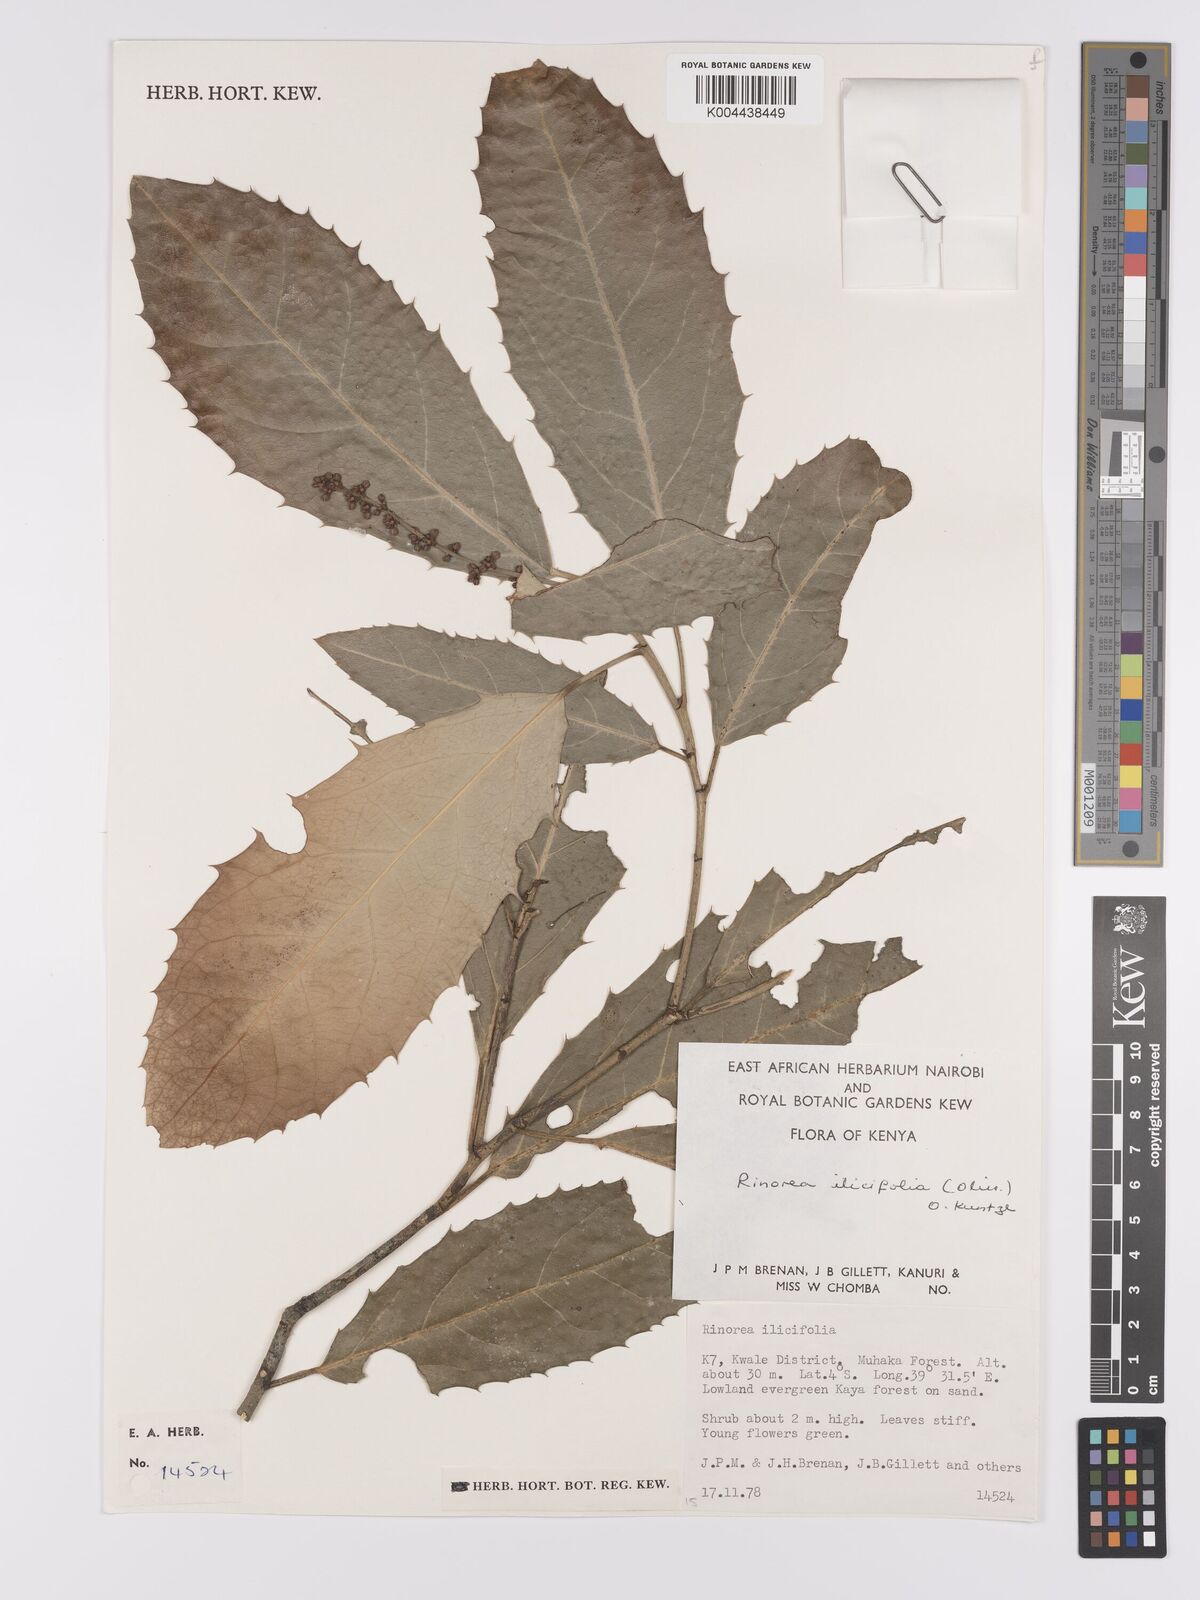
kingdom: Plantae
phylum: Tracheophyta
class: Magnoliopsida
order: Malpighiales
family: Violaceae
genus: Rinorea
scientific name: Rinorea ilicifolia
